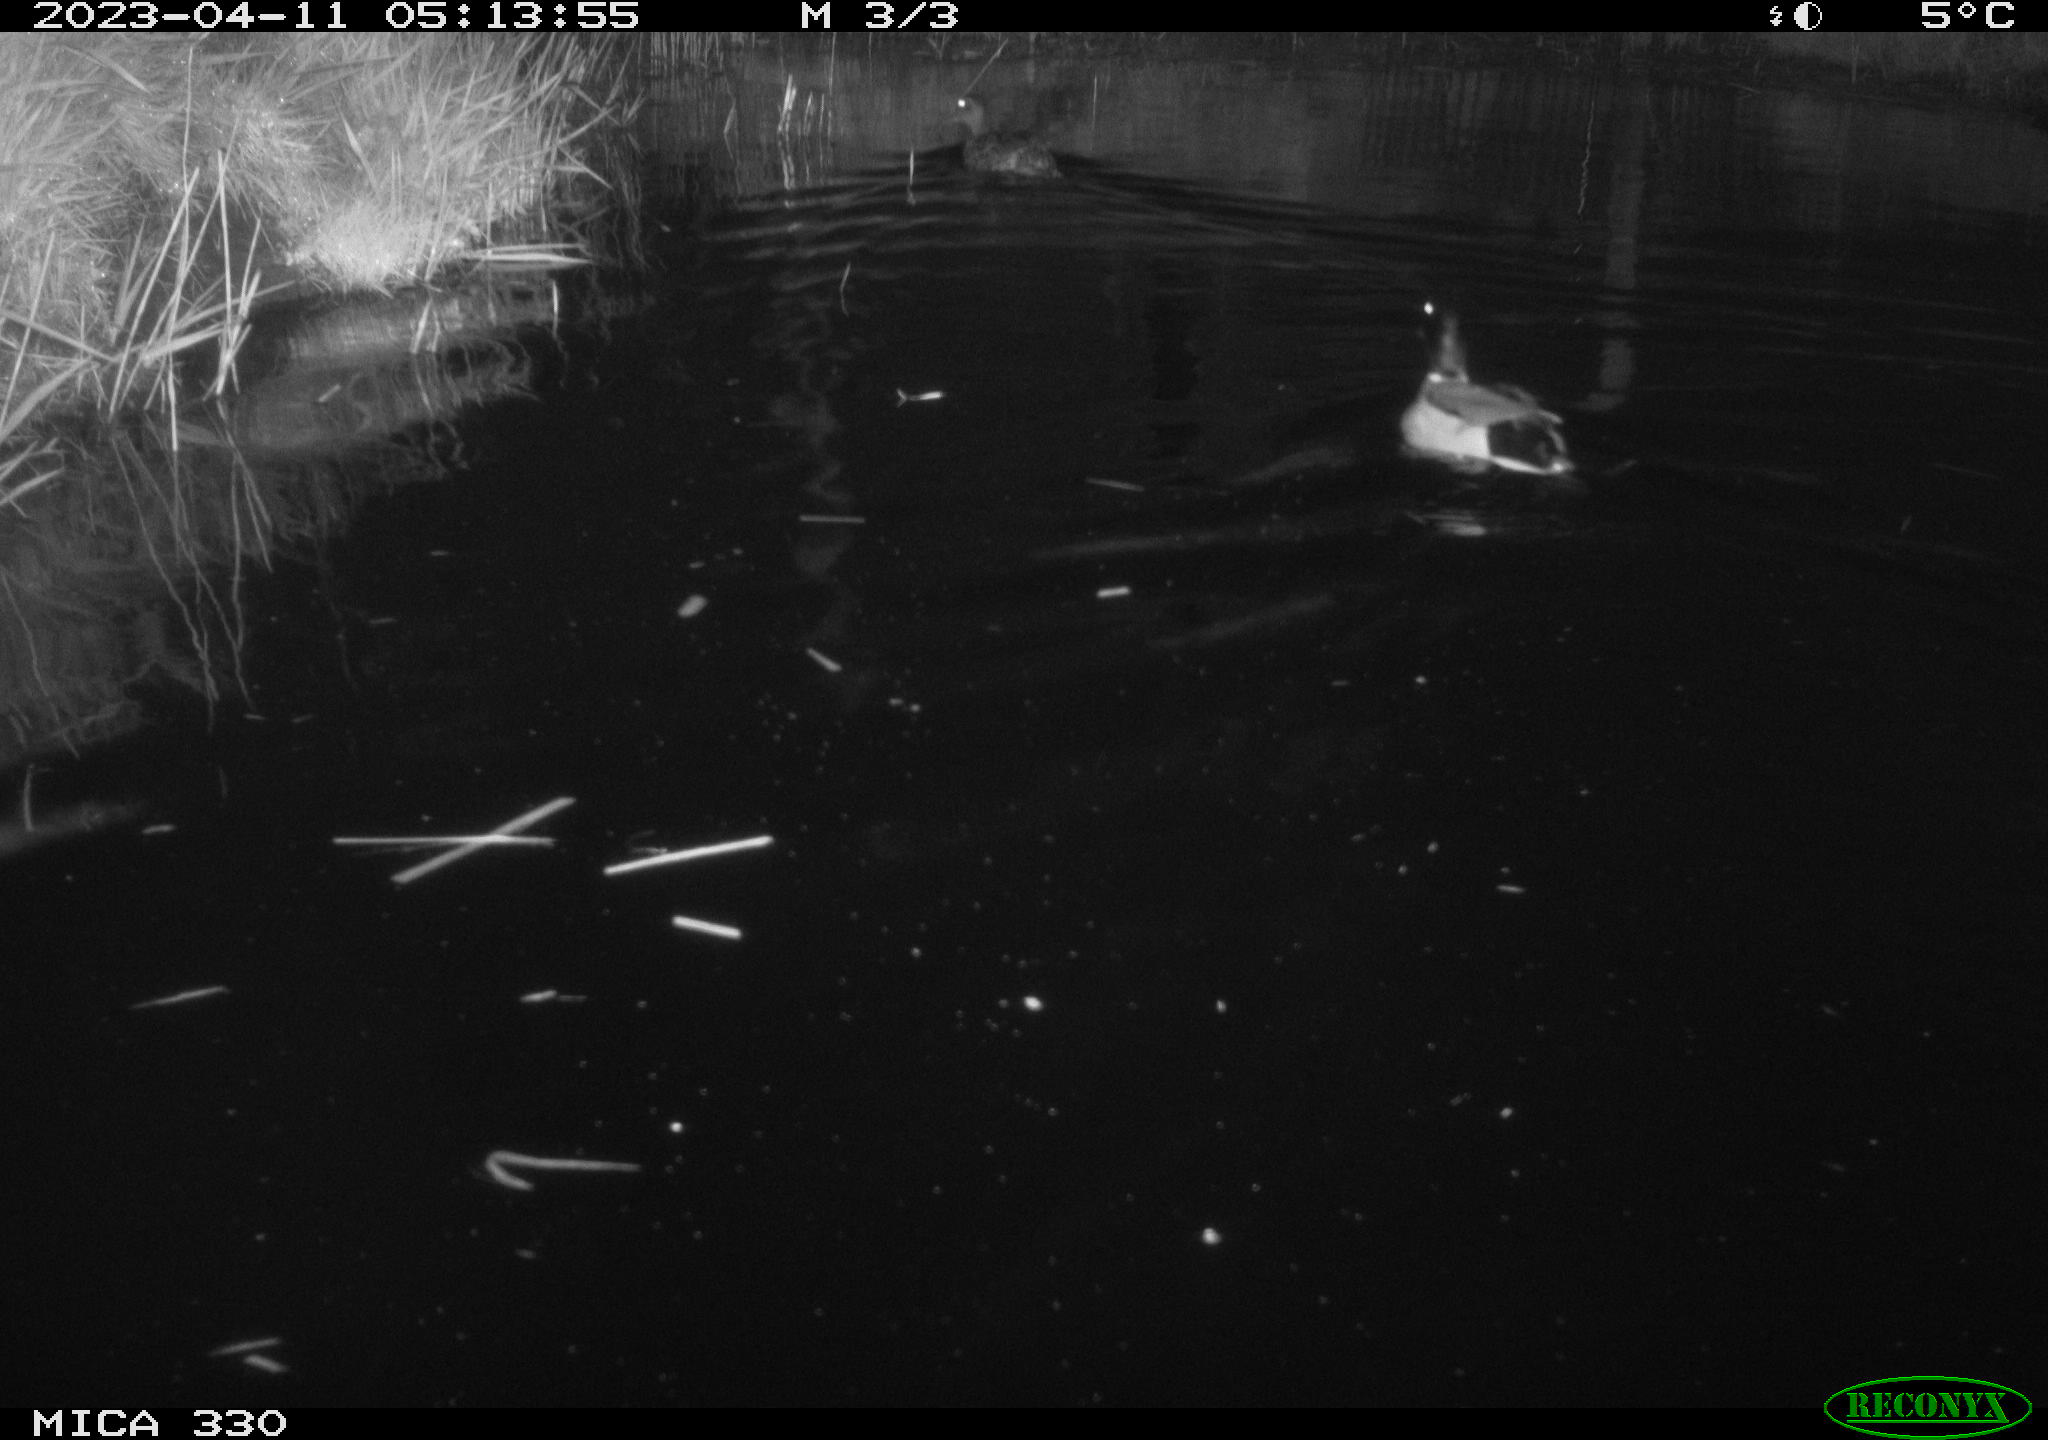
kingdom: Animalia
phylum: Chordata
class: Aves
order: Anseriformes
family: Anatidae
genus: Anas
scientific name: Anas
